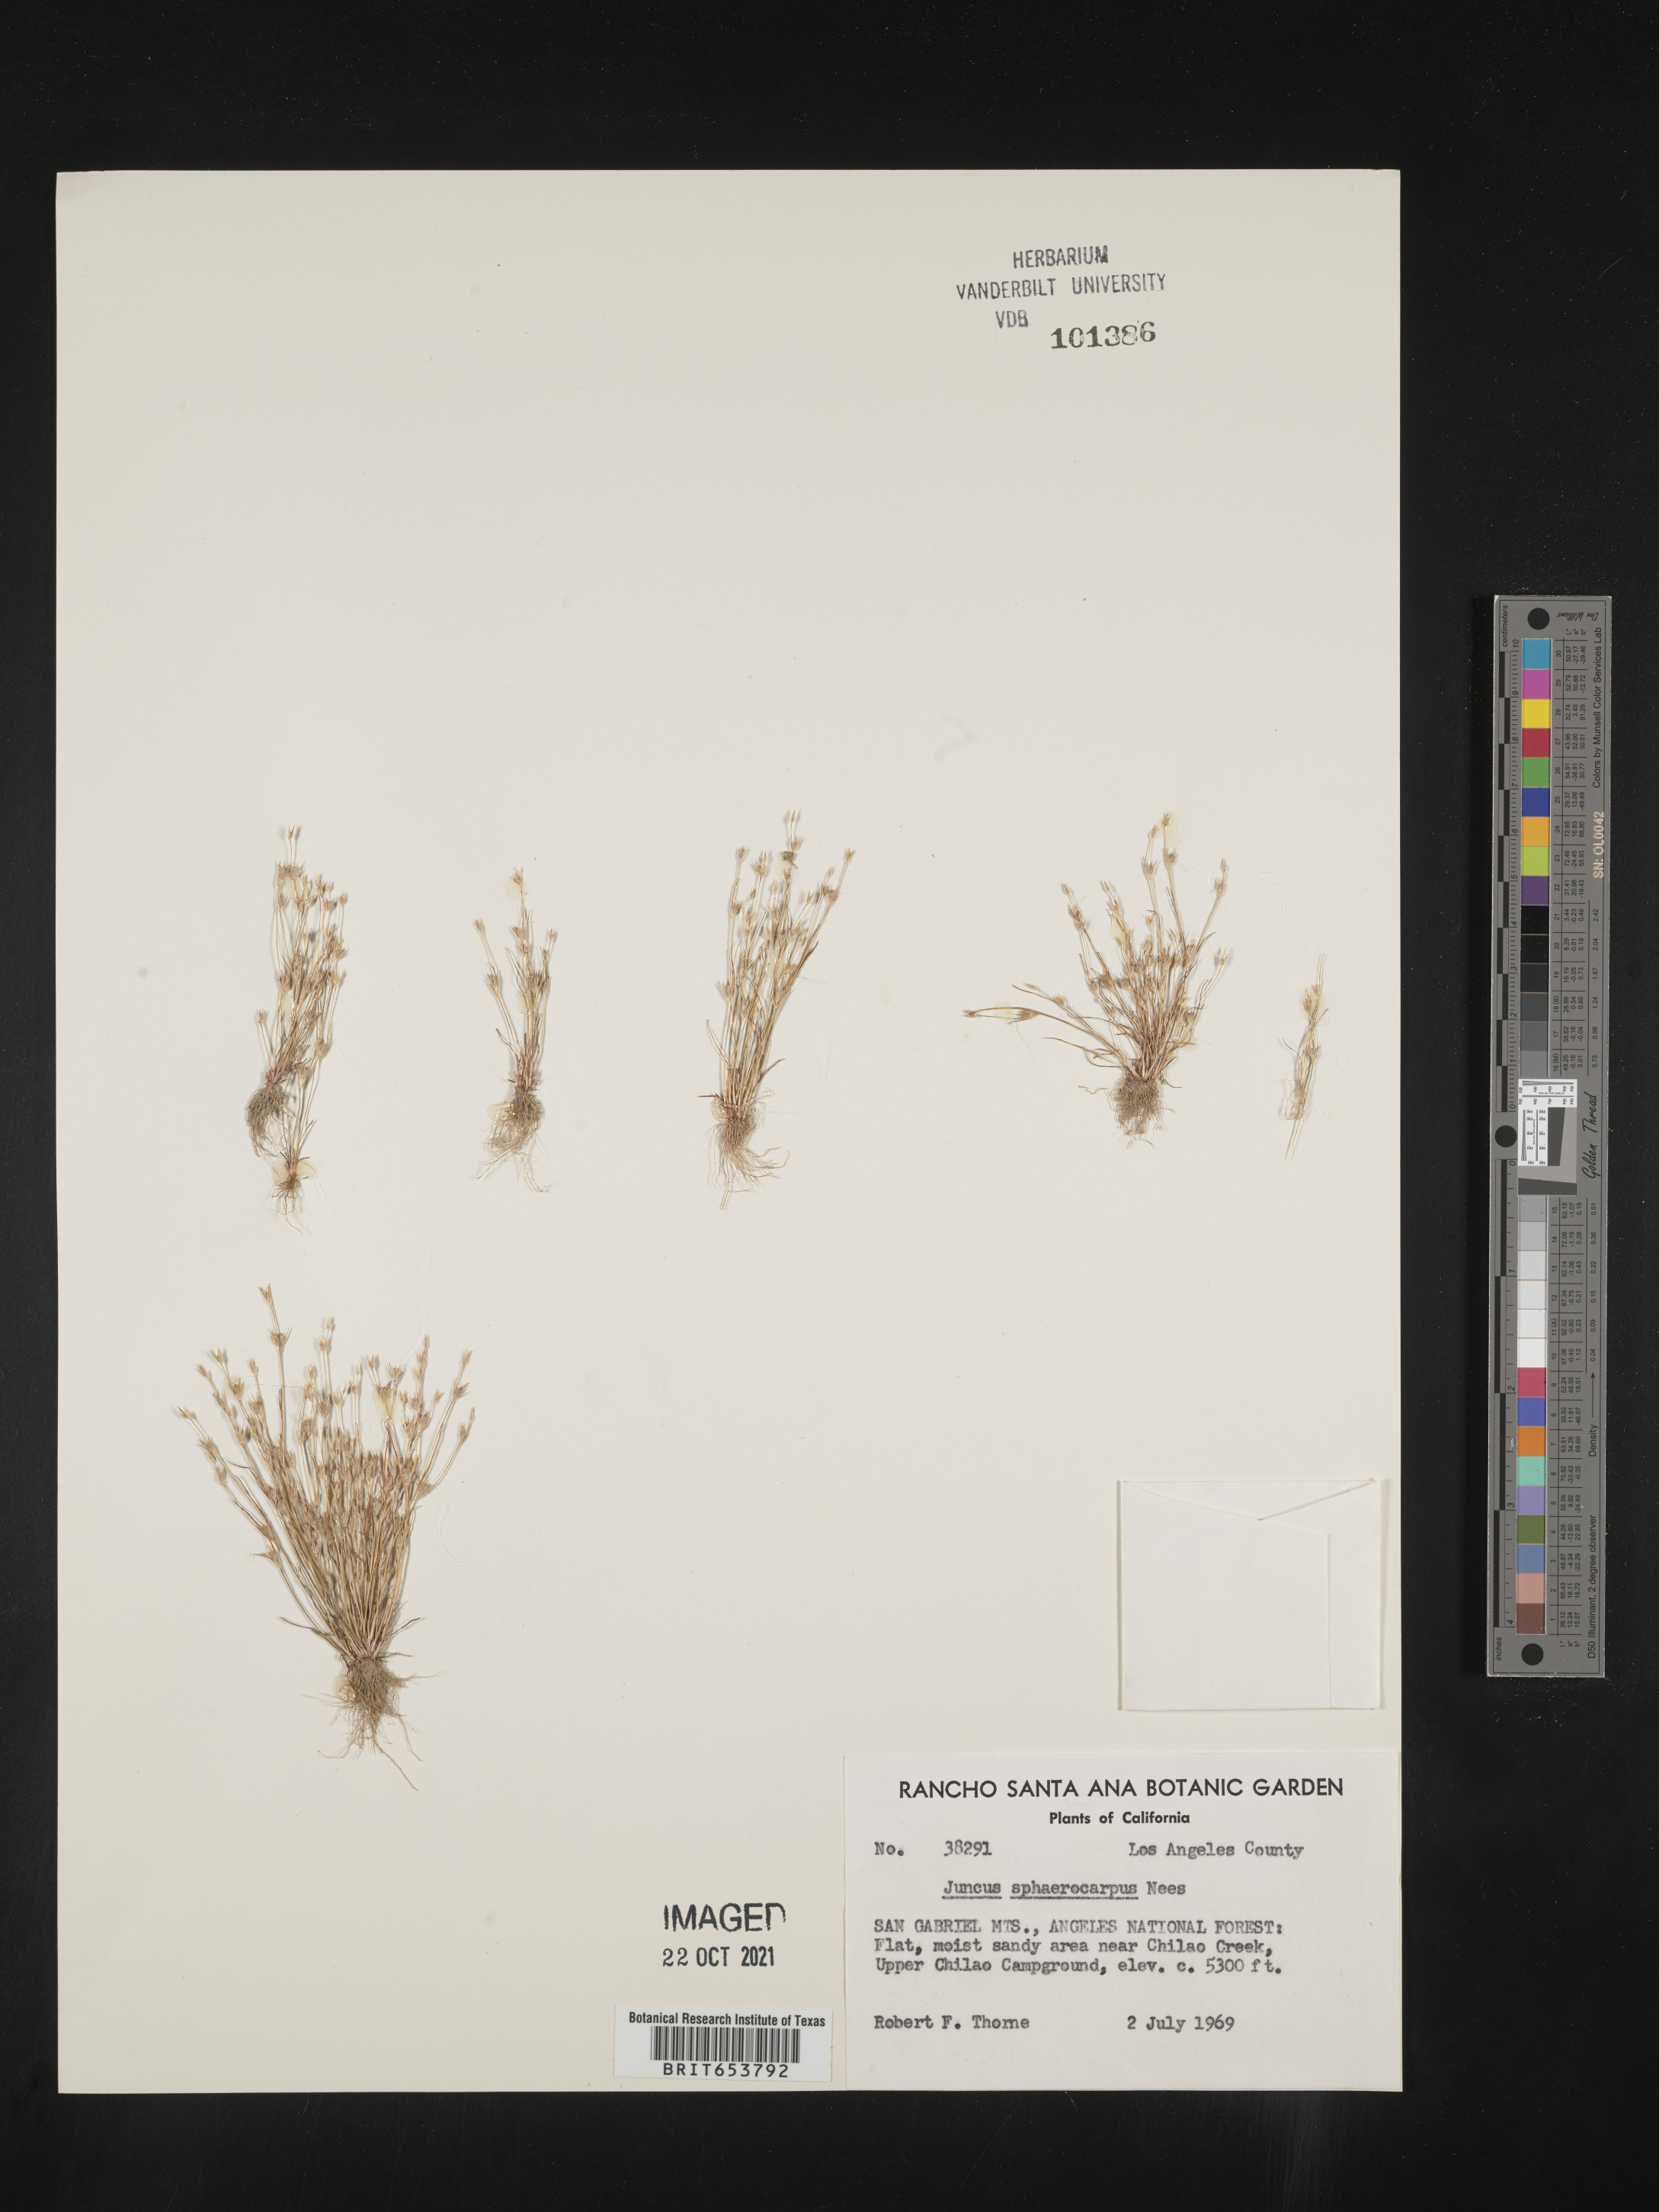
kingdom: Plantae
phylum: Tracheophyta
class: Liliopsida
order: Poales
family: Juncaceae
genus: Juncus
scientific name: Juncus sphaerocarpus
